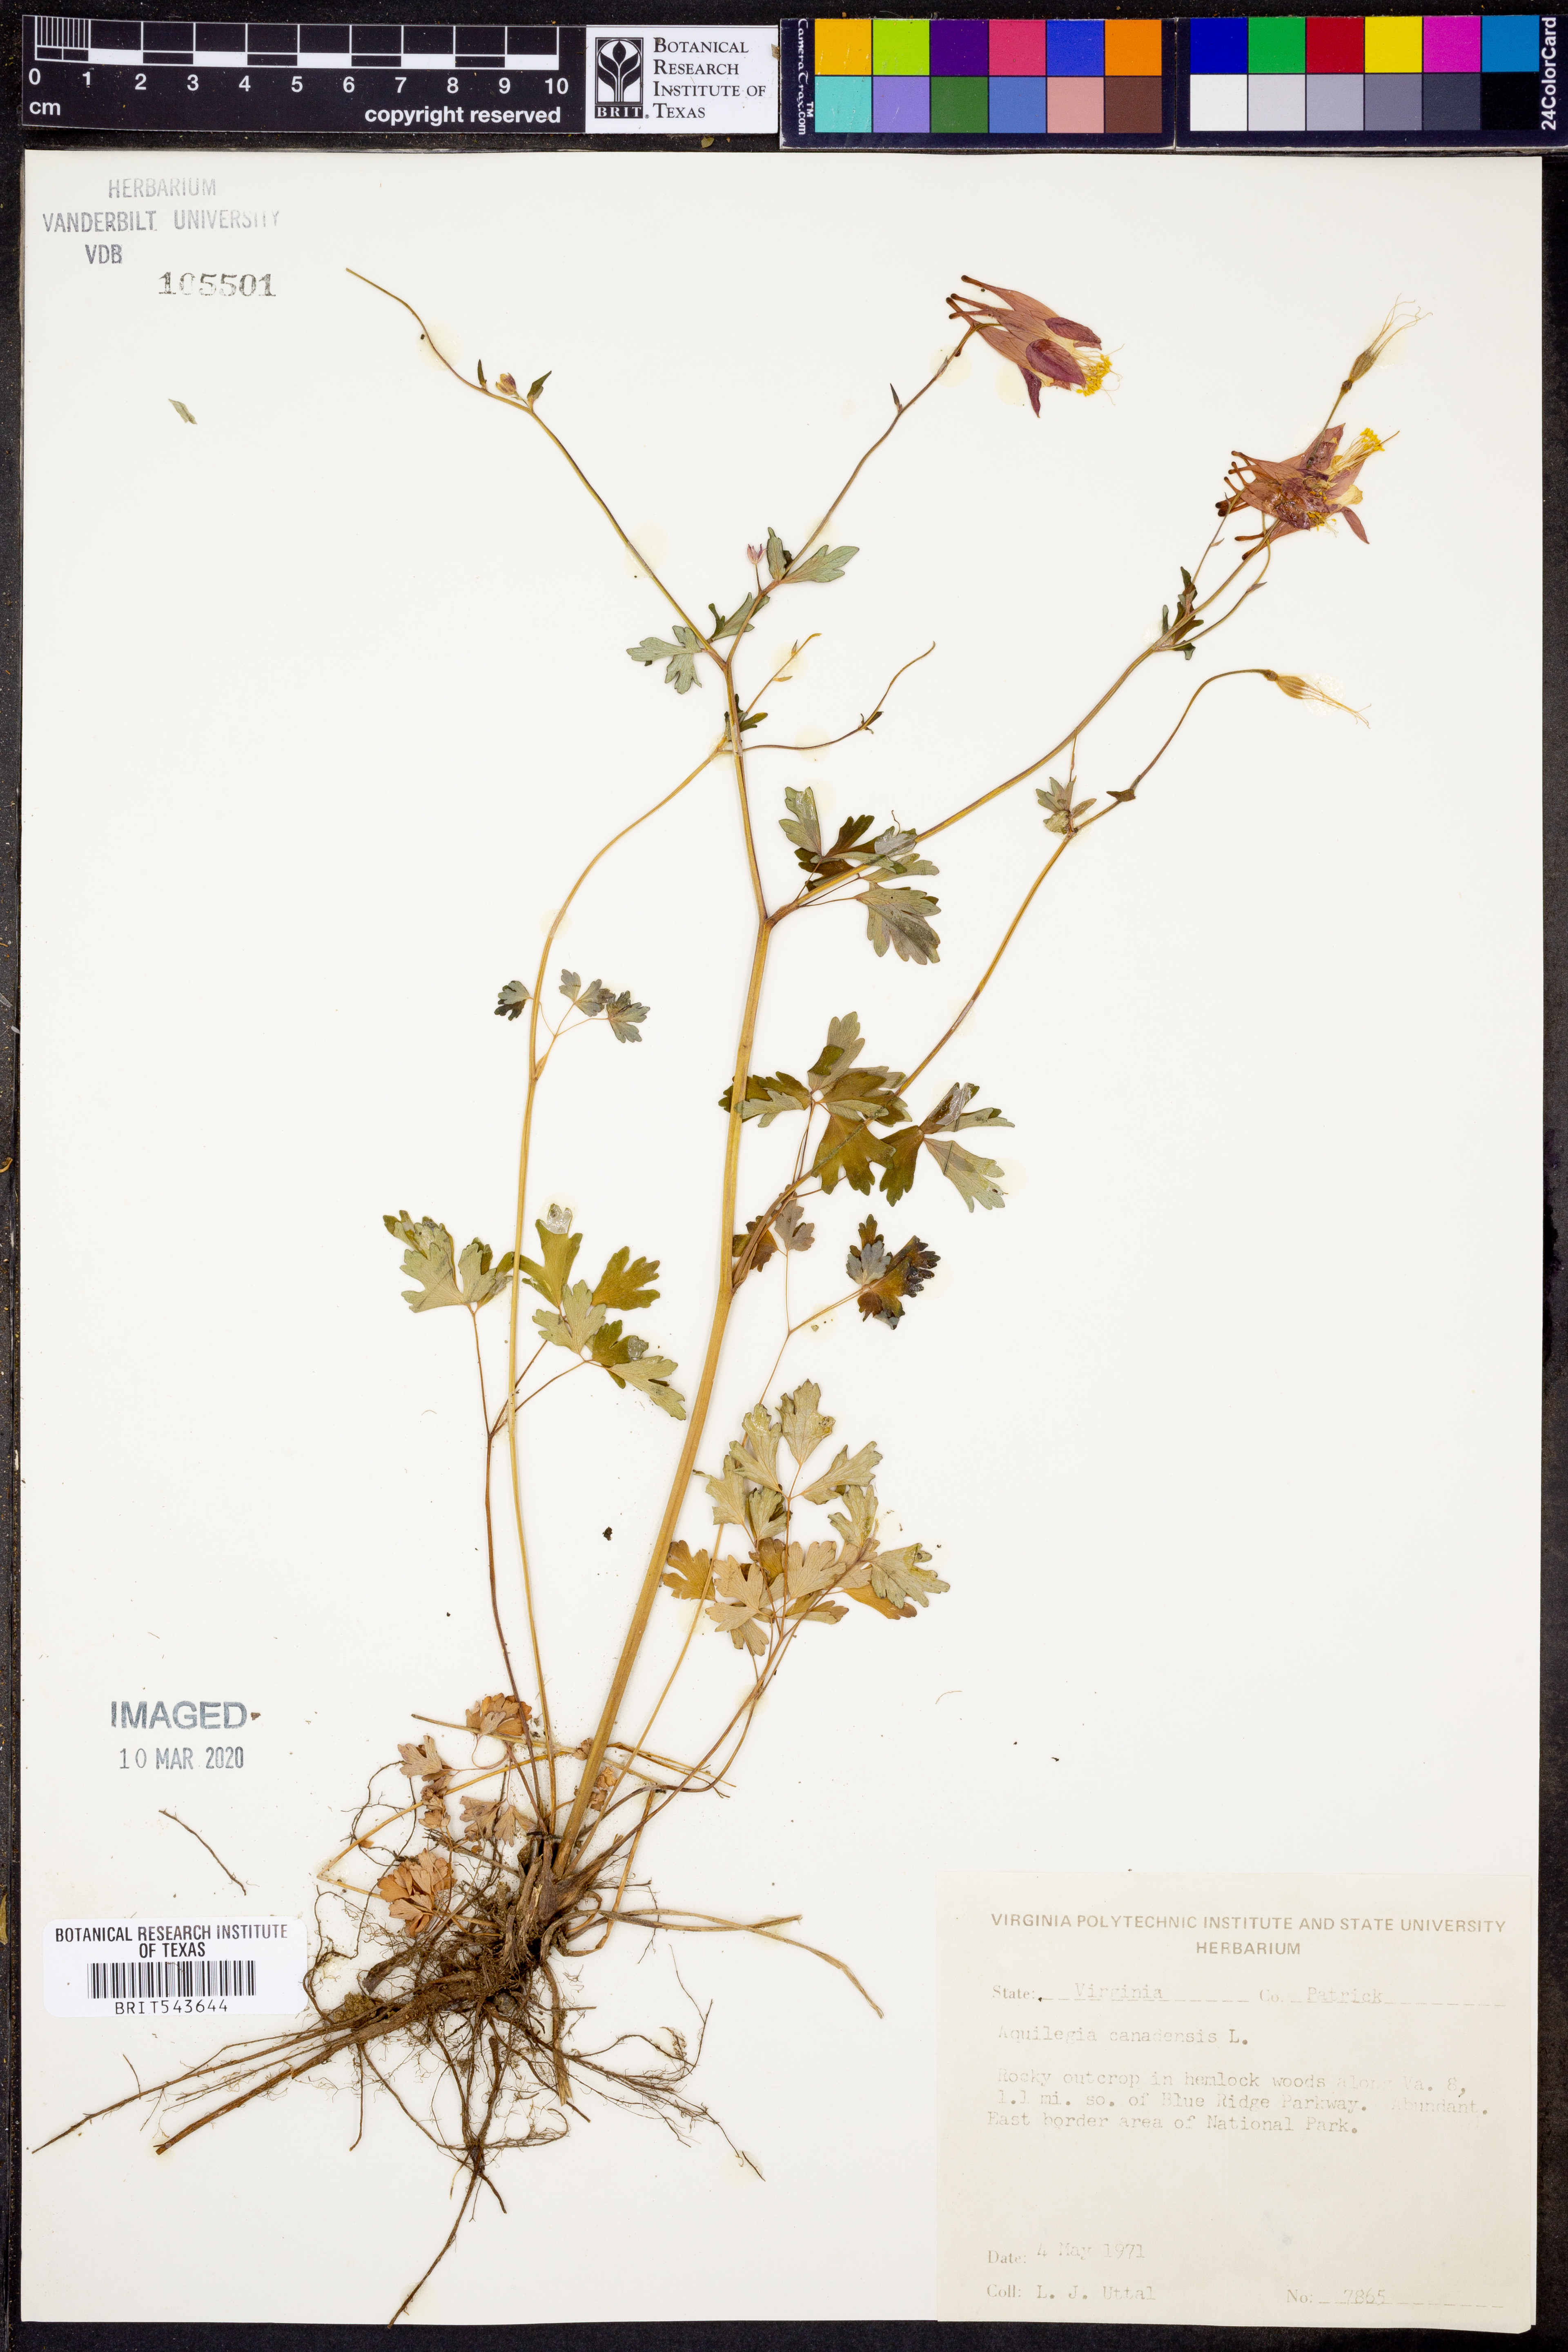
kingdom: Plantae
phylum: Tracheophyta
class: Magnoliopsida
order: Ranunculales
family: Ranunculaceae
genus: Aquilegia
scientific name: Aquilegia canadensis
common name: American columbine
